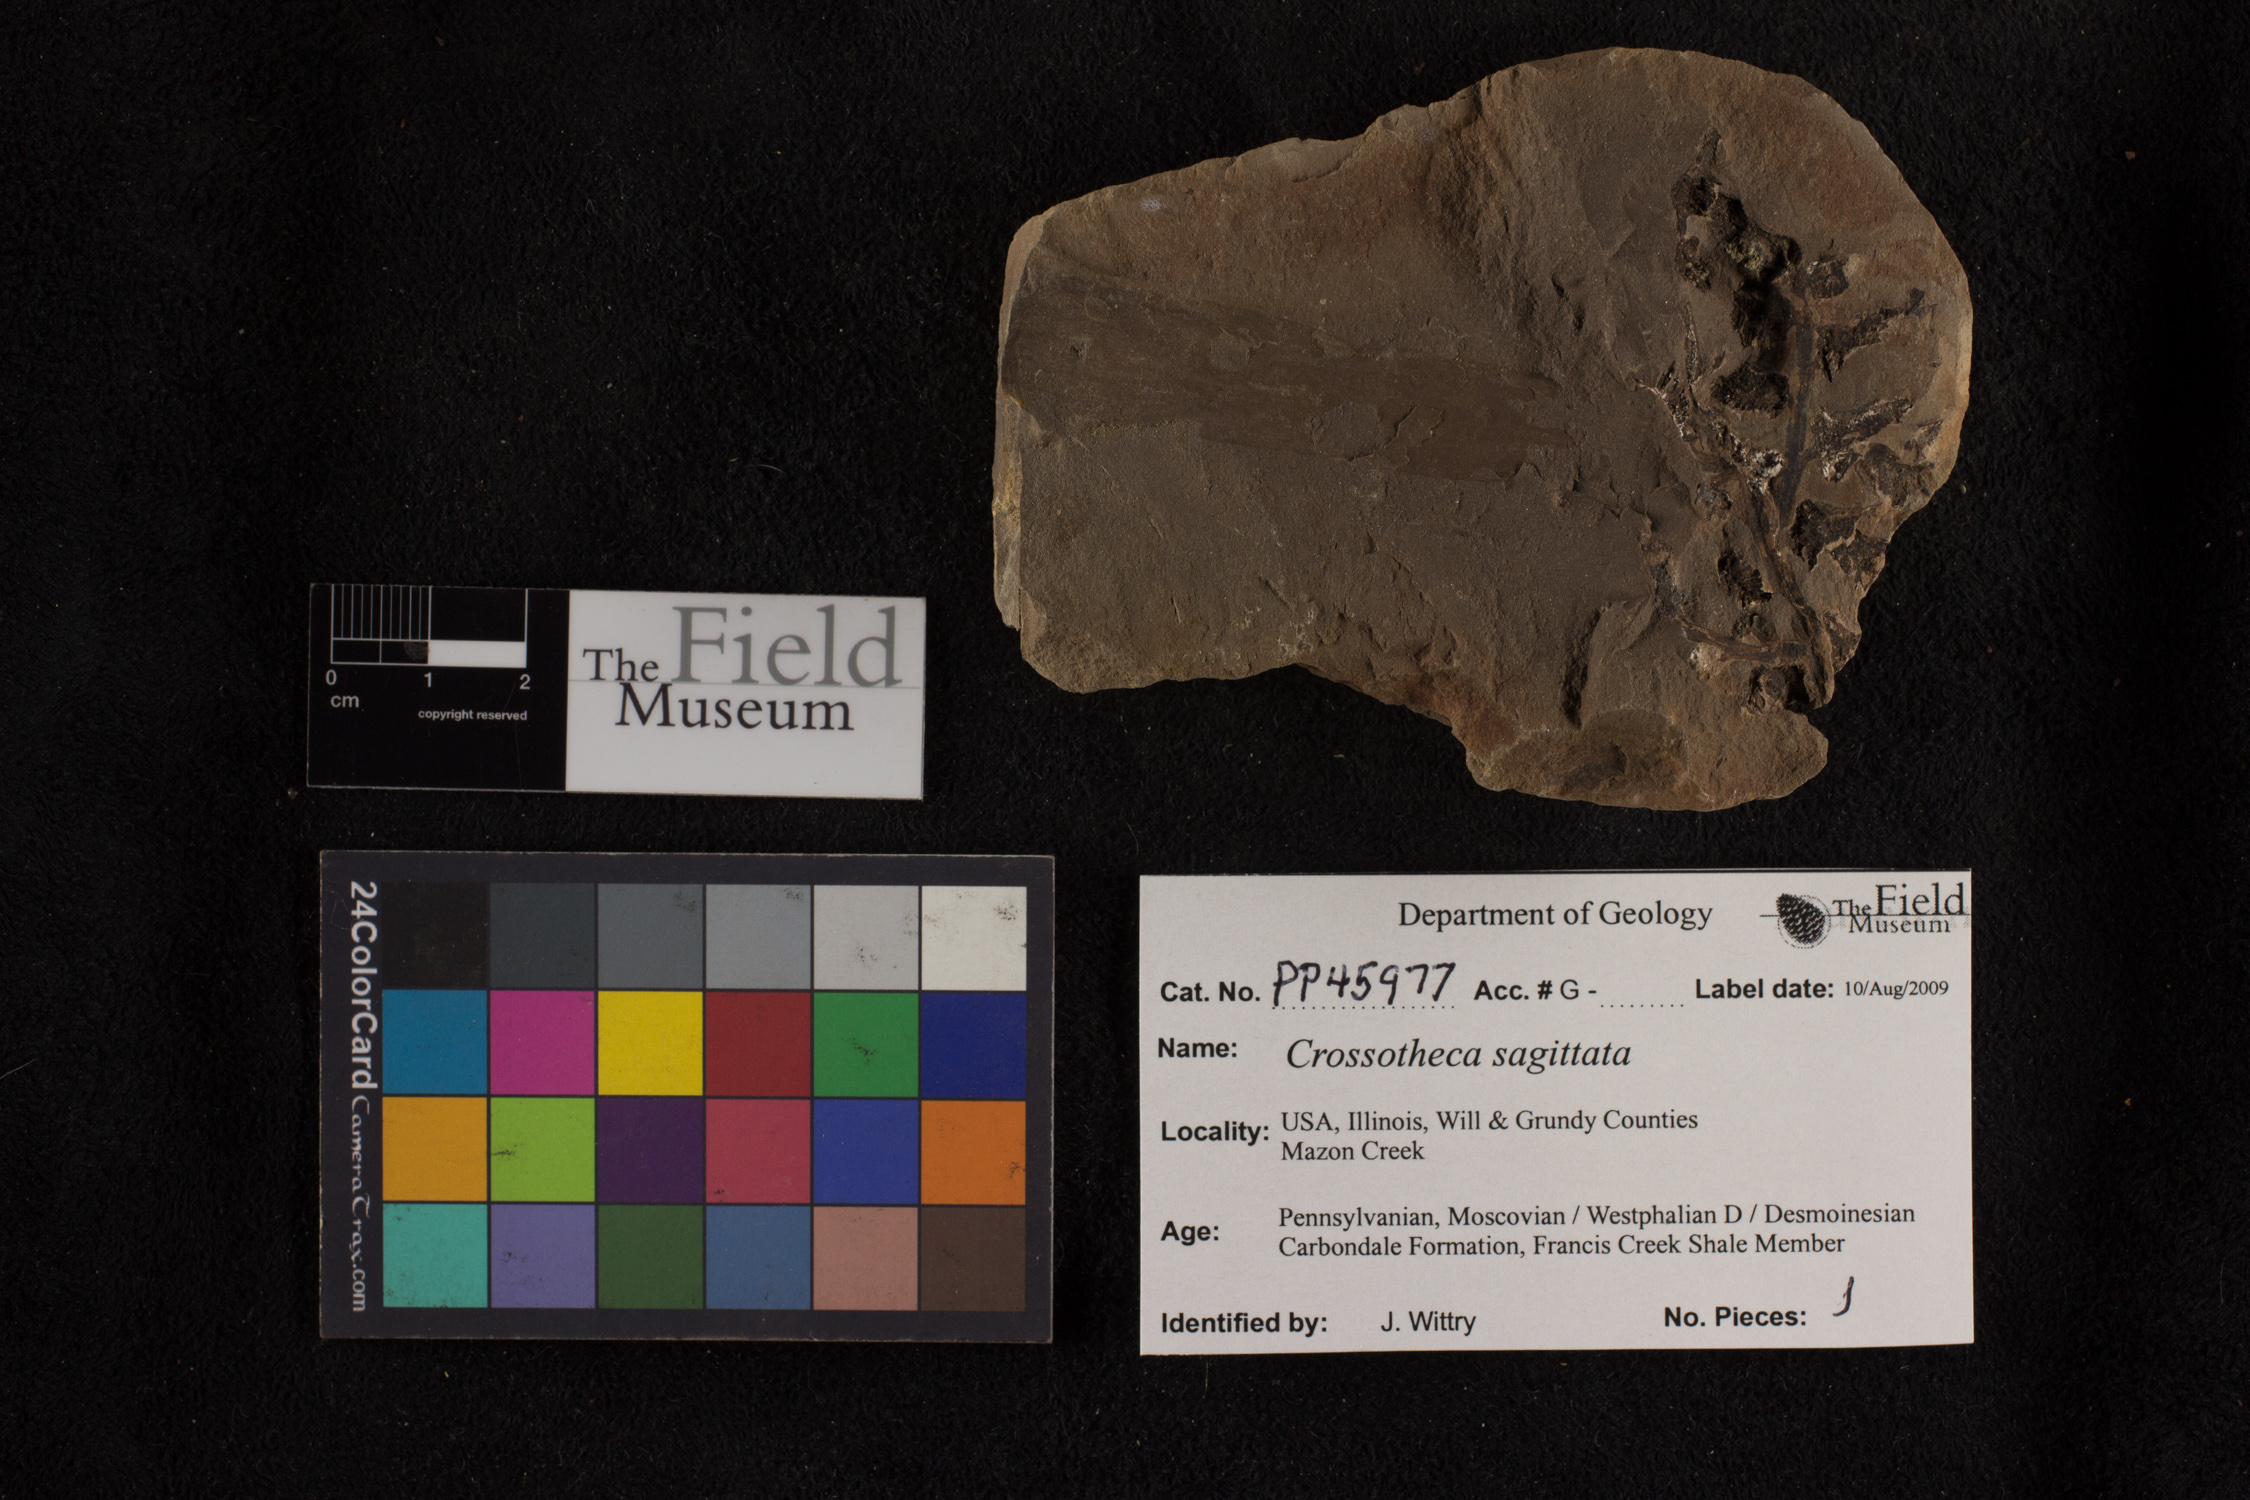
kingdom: Plantae
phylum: Tracheophyta
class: Polypodiopsida
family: Stauropteridaceae
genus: Crossotheca
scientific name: Crossotheca
